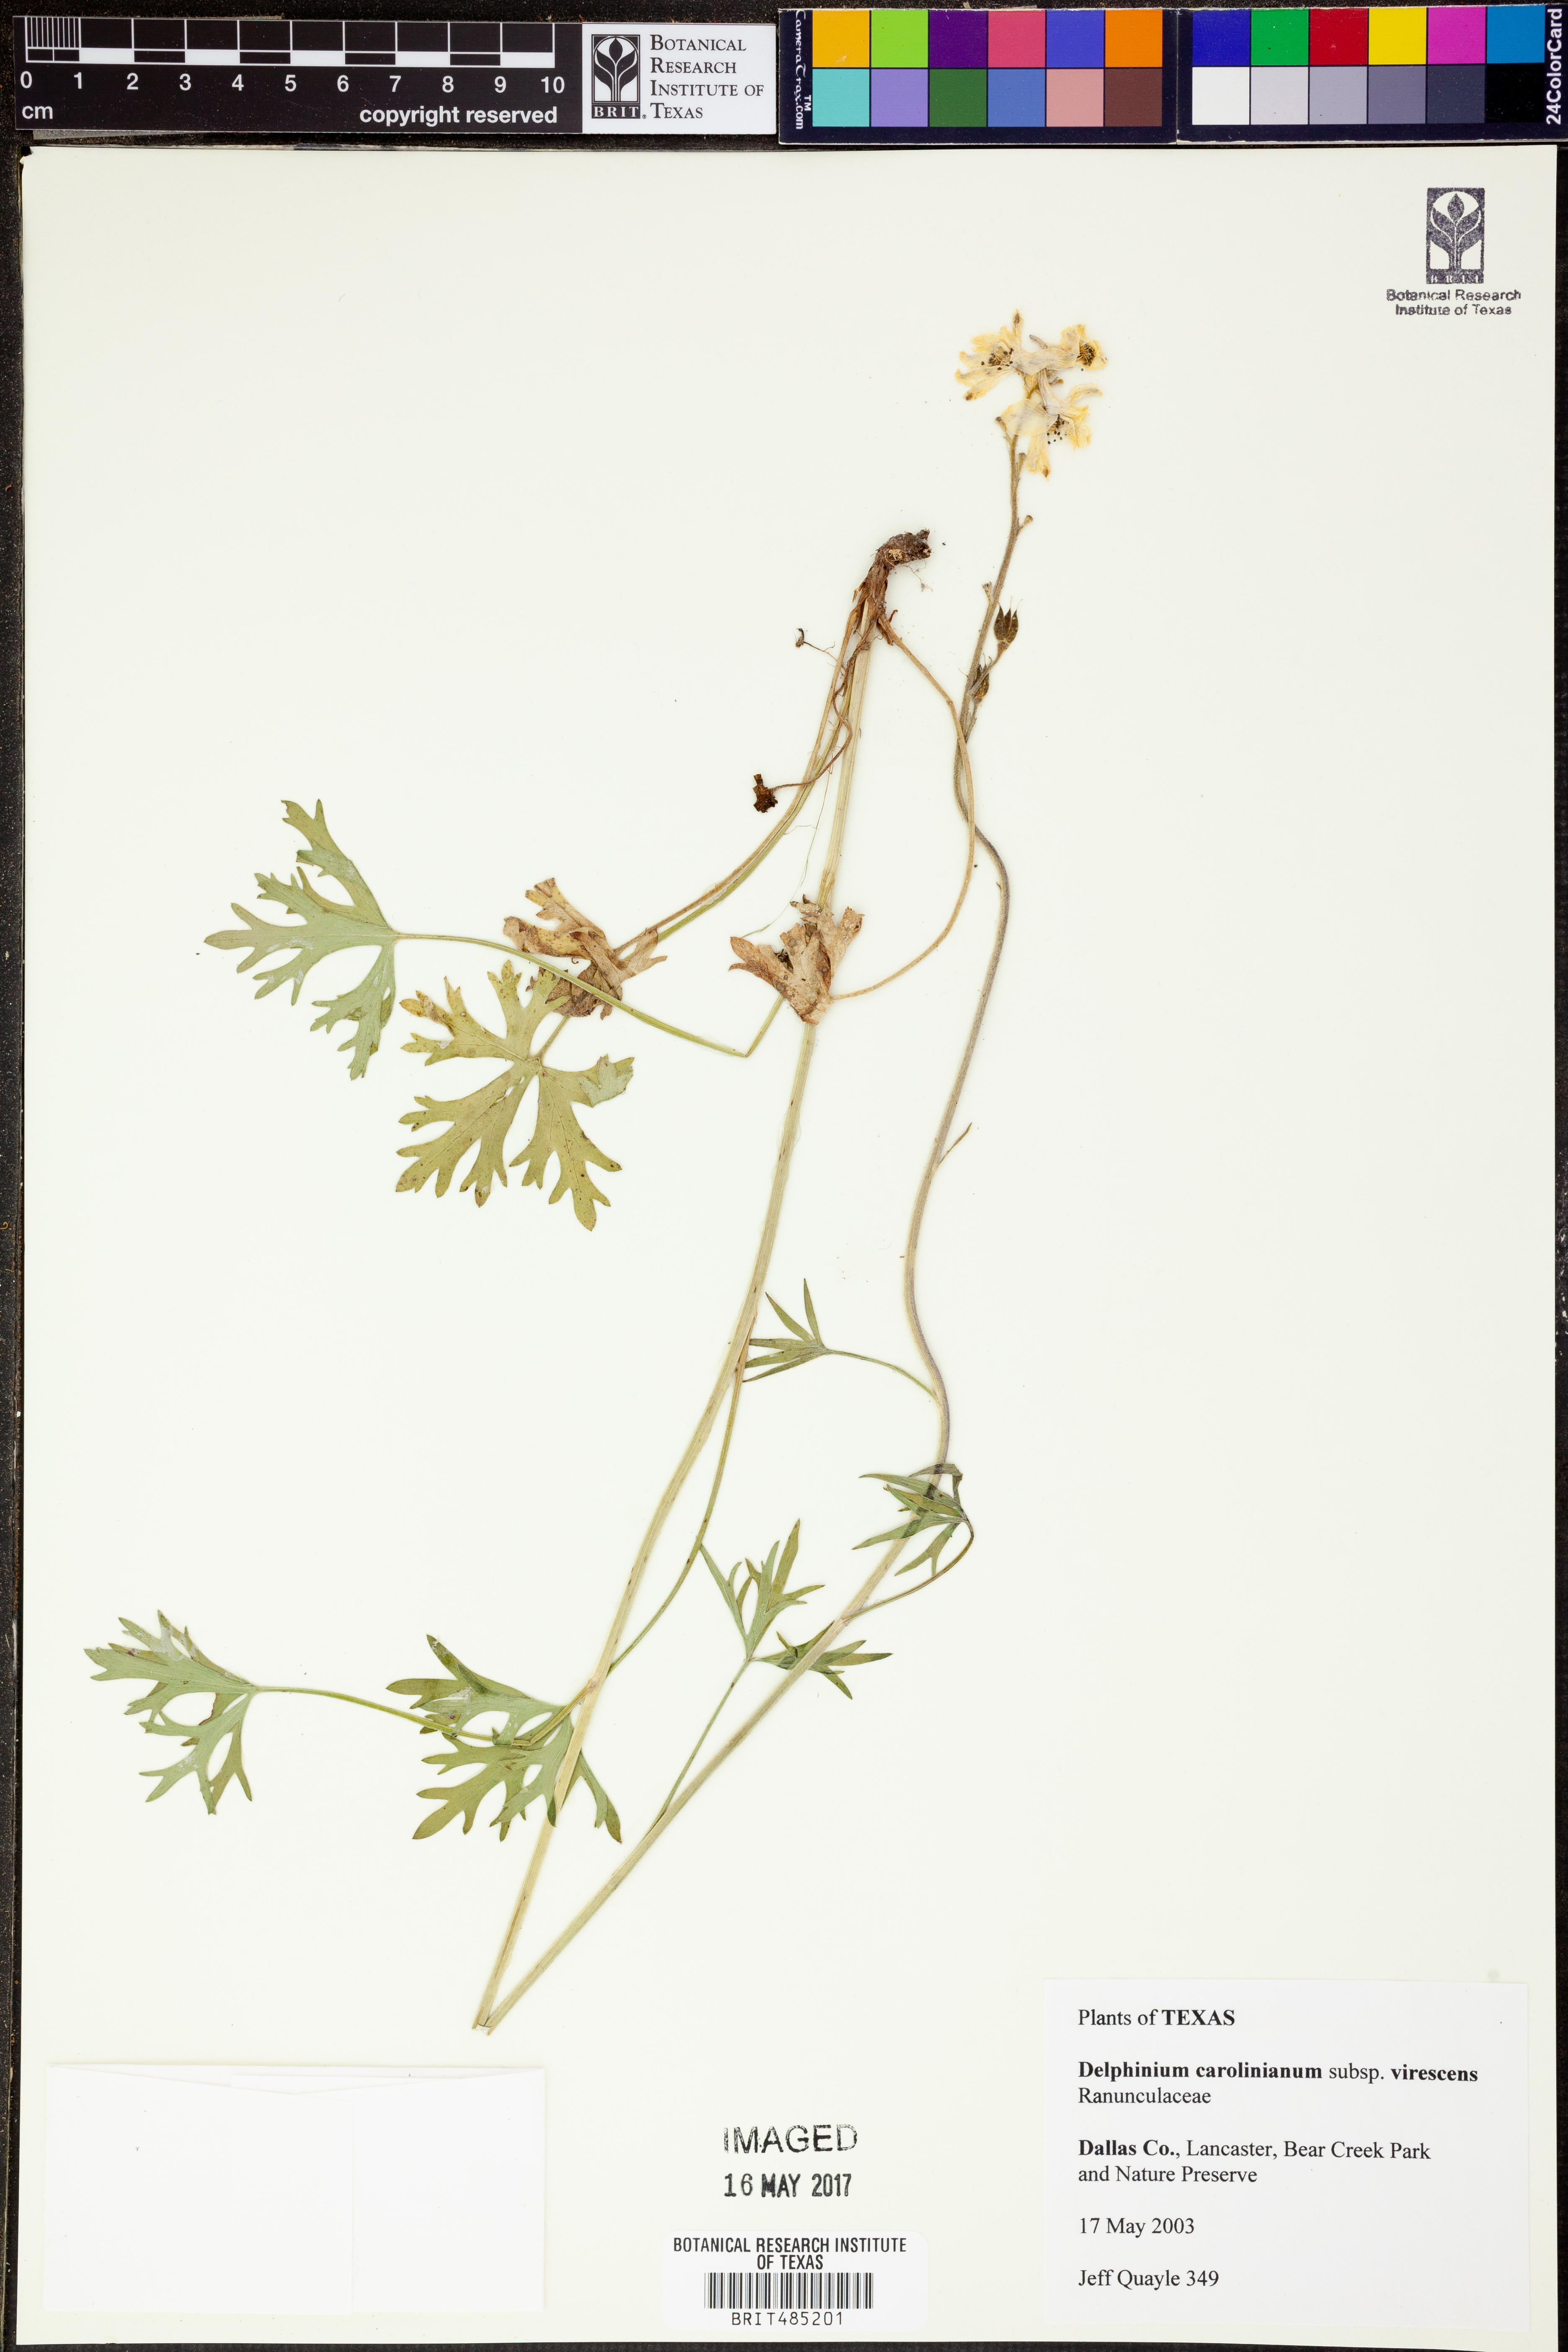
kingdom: Plantae
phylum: Tracheophyta
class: Magnoliopsida
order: Ranunculales
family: Ranunculaceae
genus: Delphinium
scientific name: Delphinium carolinianum
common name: Carolina larkspur
